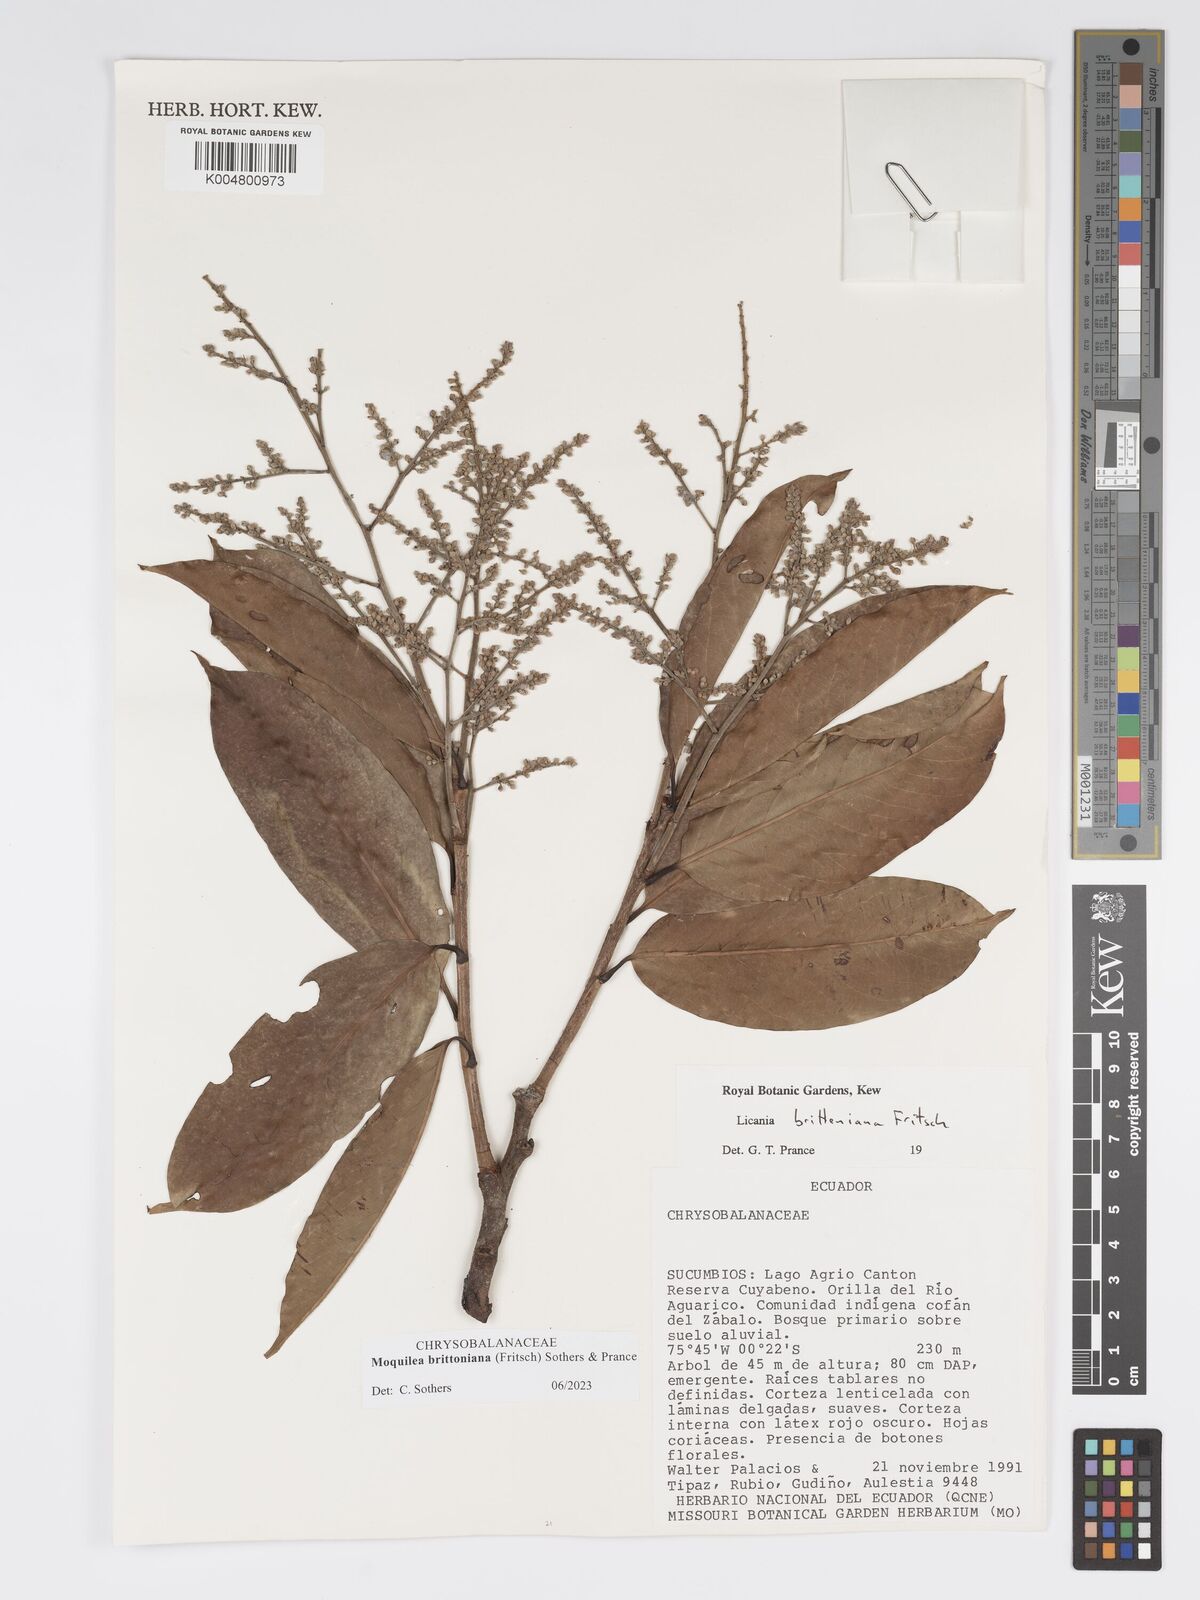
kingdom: Plantae
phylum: Tracheophyta
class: Magnoliopsida
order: Malpighiales
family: Chrysobalanaceae
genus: Moquilea
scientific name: Moquilea brittoniana
